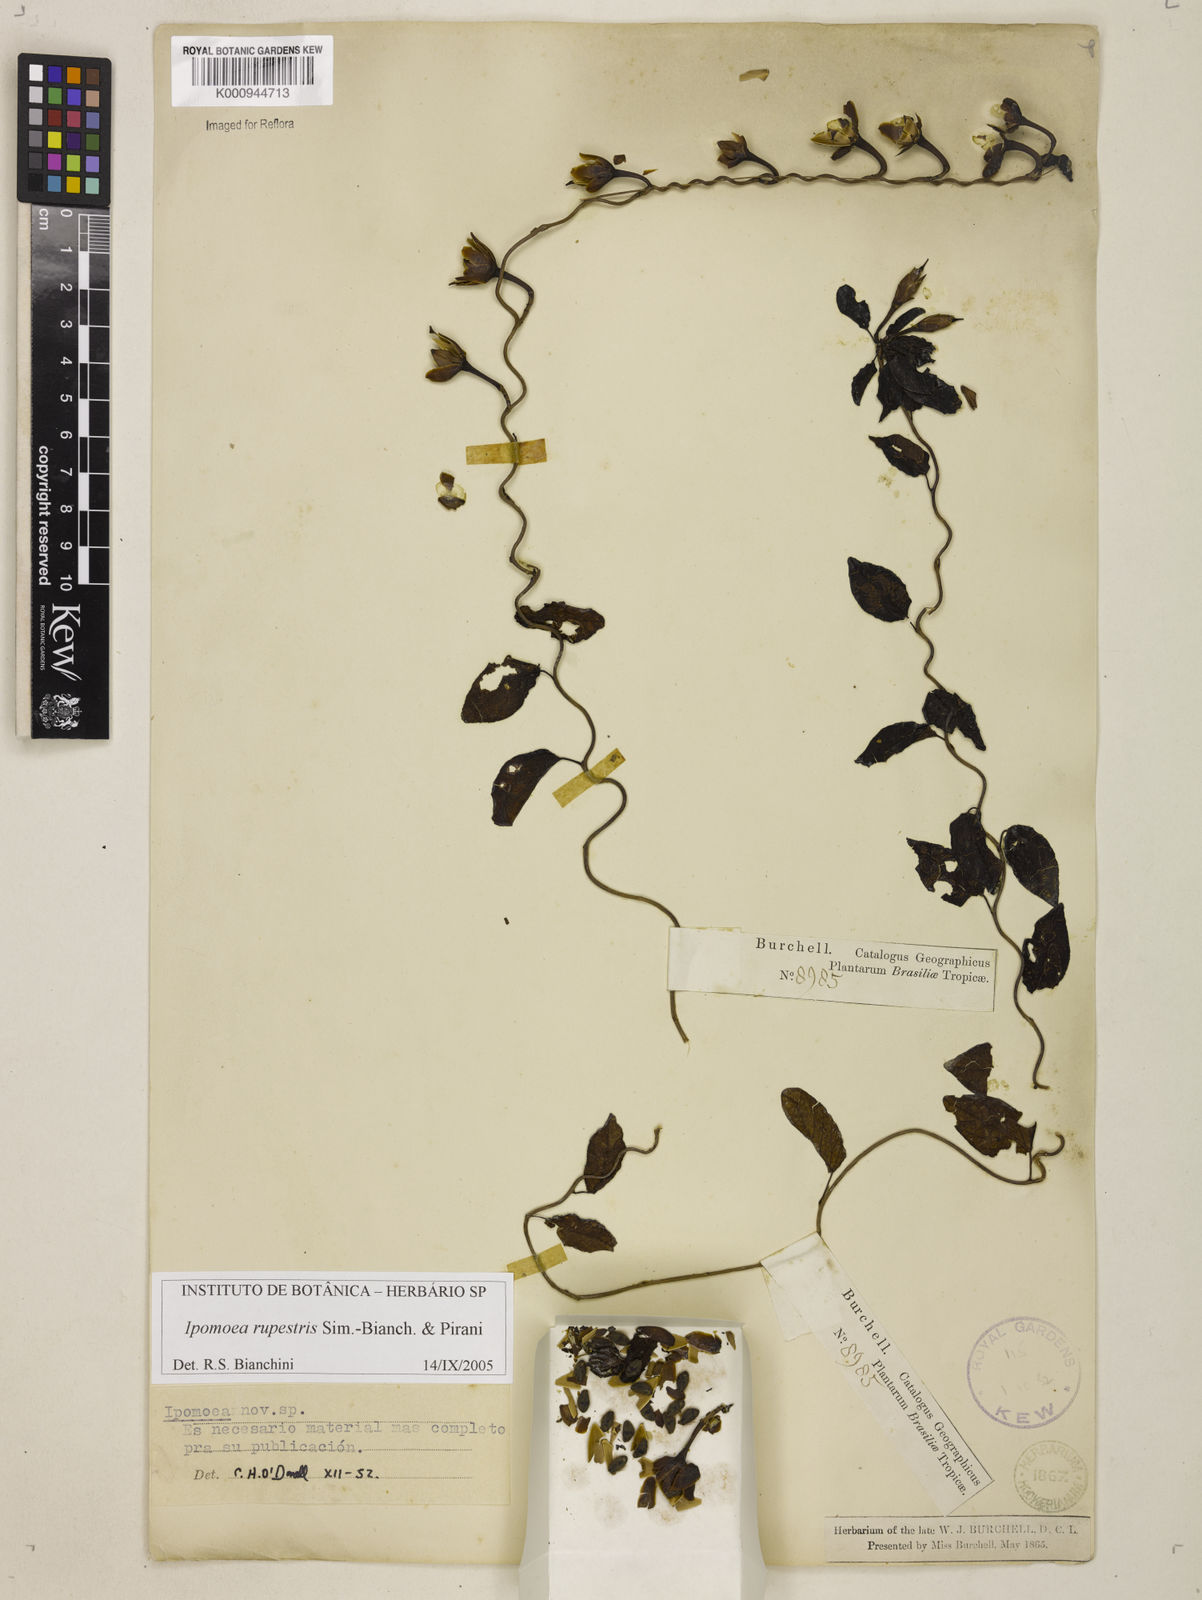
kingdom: Plantae
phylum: Tracheophyta
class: Magnoliopsida
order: Solanales
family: Convolvulaceae
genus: Ipomoea
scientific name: Ipomoea rupestris
